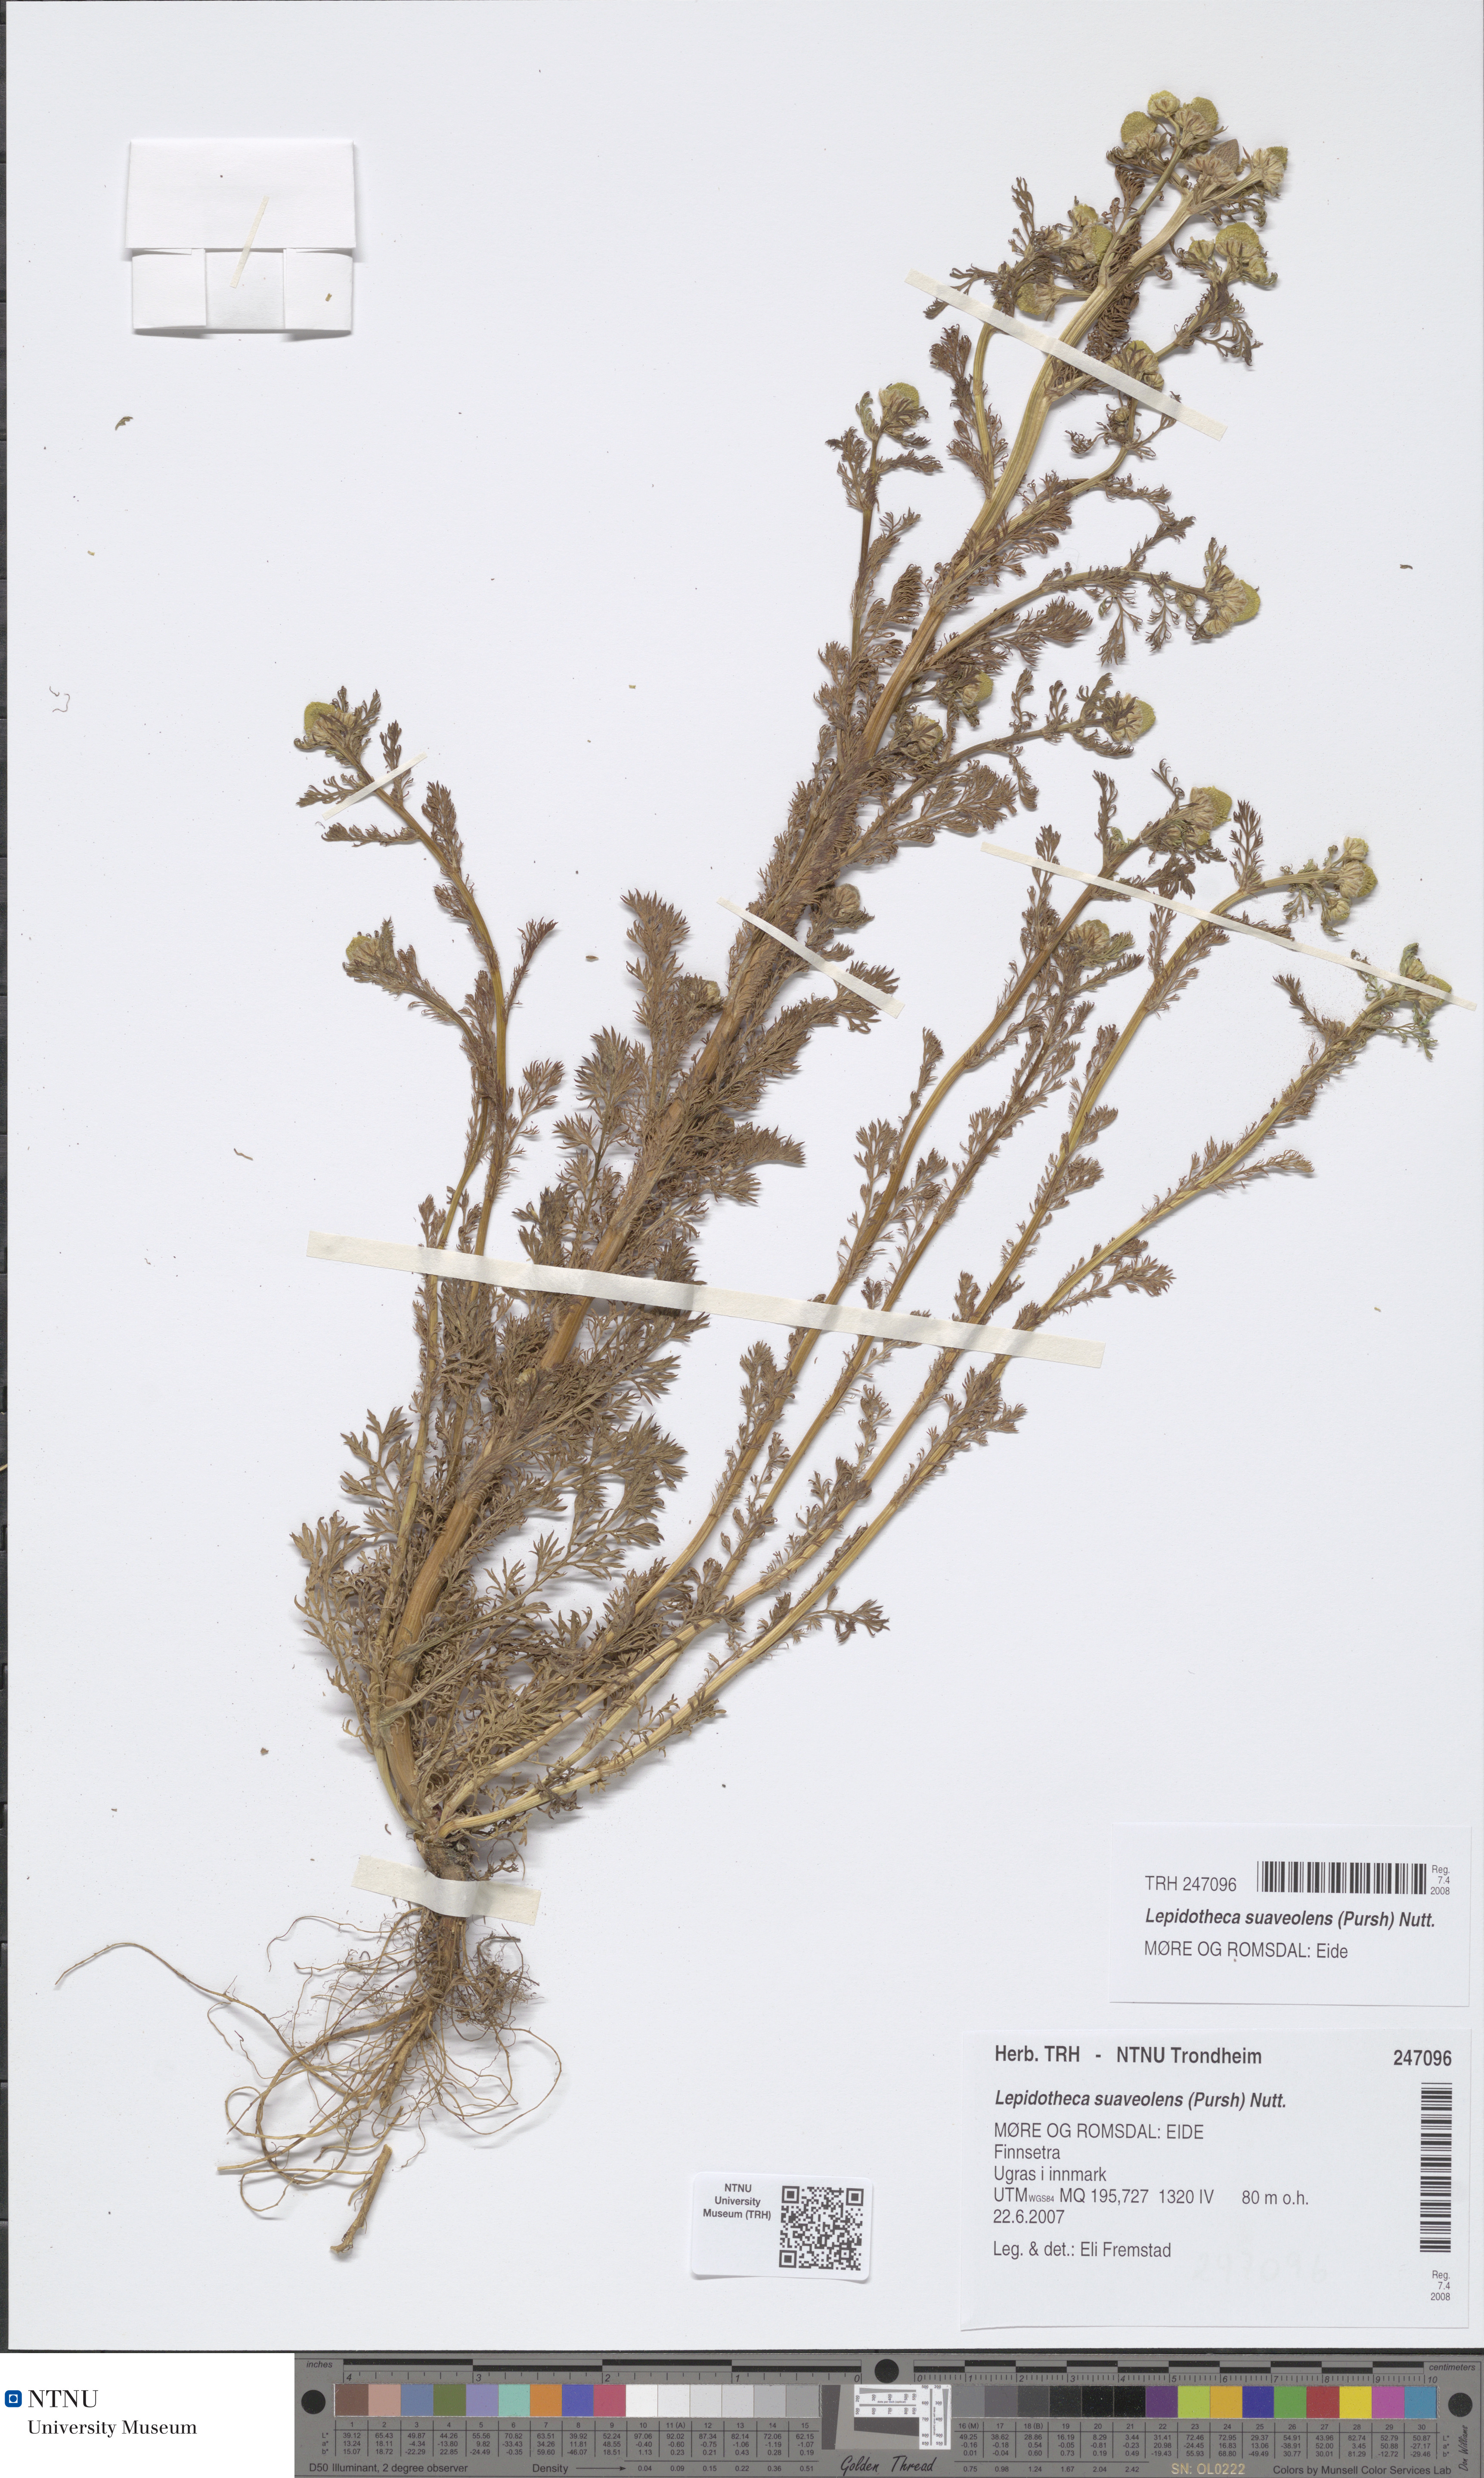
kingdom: Plantae
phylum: Tracheophyta
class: Magnoliopsida
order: Asterales
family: Asteraceae
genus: Matricaria
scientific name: Matricaria discoidea
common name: Disc mayweed
